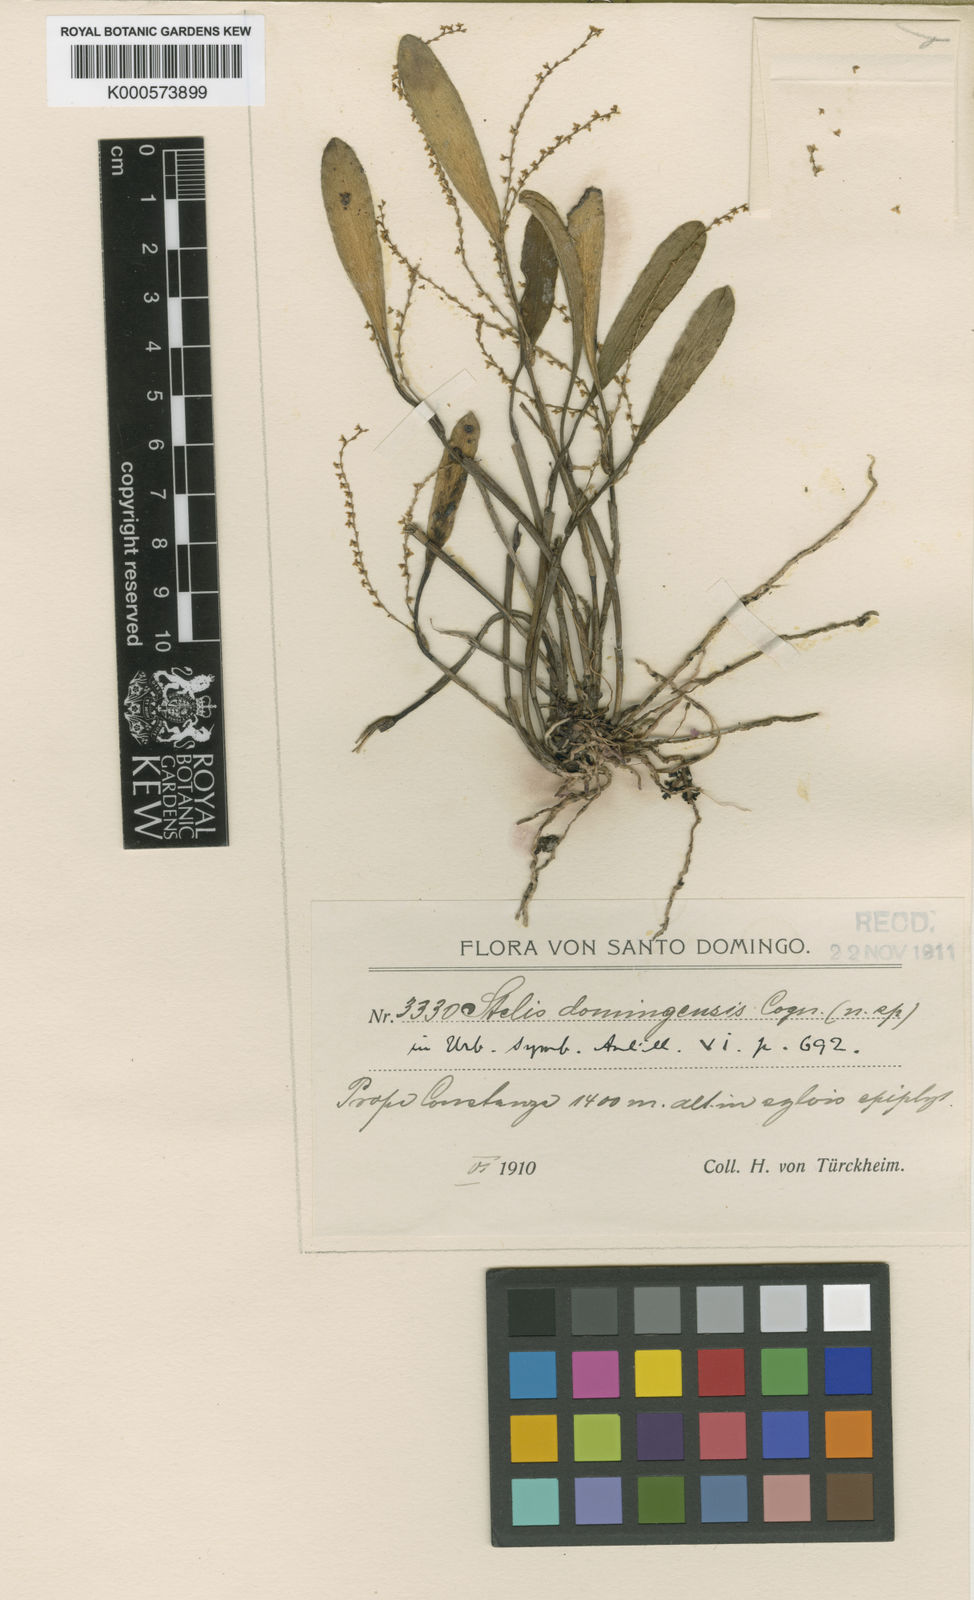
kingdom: Plantae
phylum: Tracheophyta
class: Liliopsida
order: Asparagales
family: Orchidaceae
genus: Stelis
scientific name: Stelis aprica
